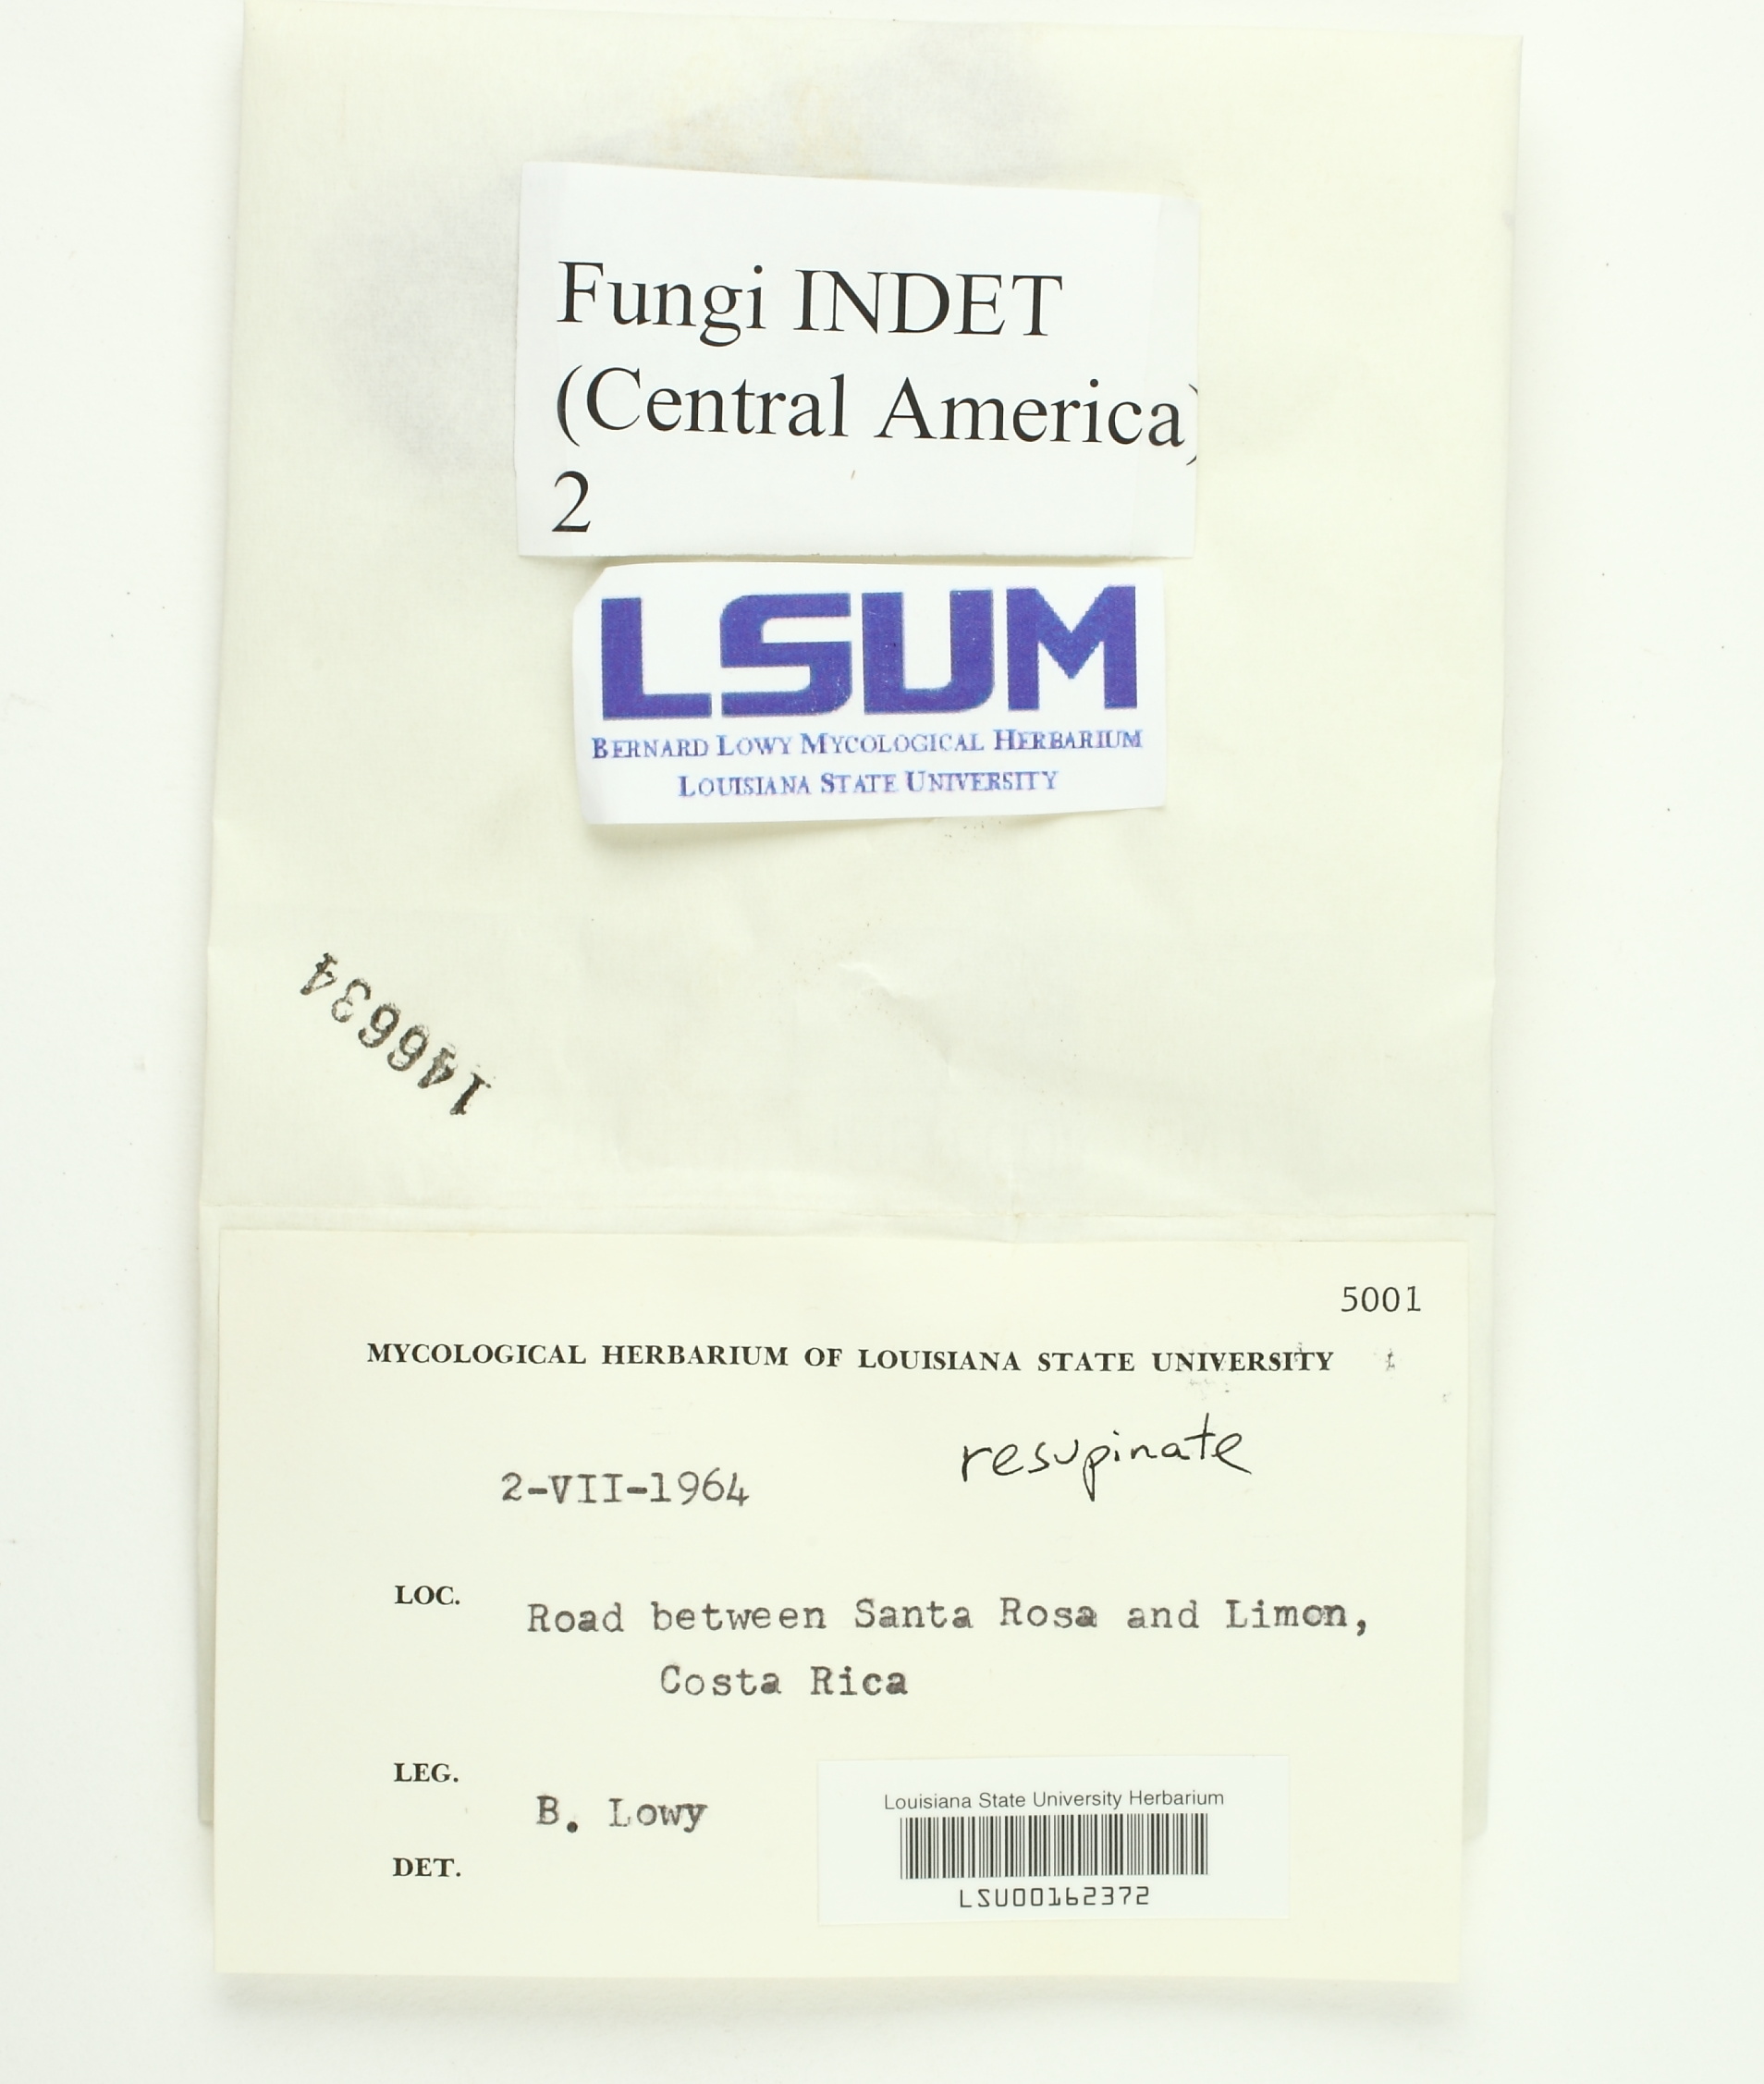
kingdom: Fungi
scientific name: Fungi
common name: Fungi
